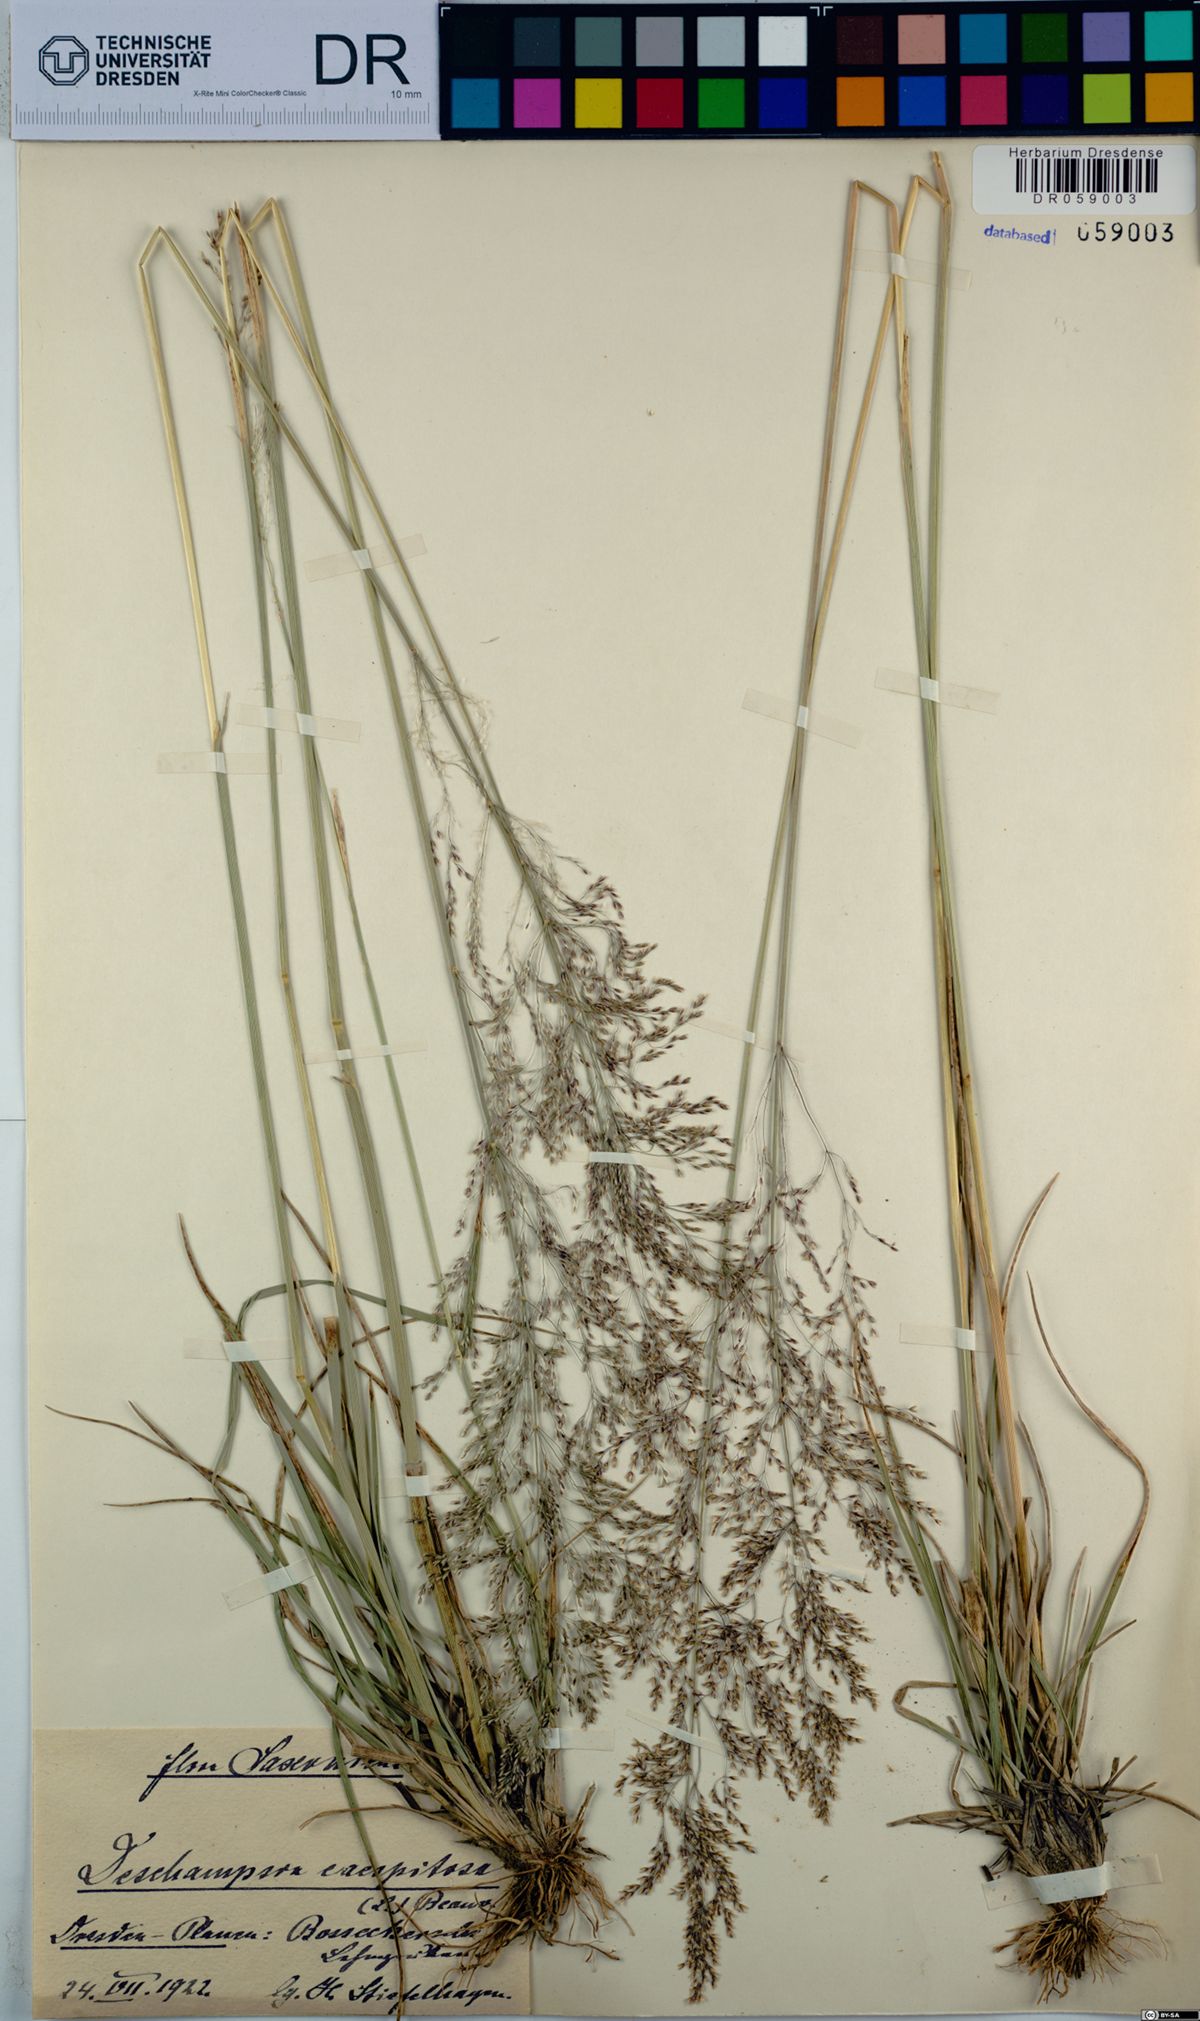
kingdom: Plantae
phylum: Tracheophyta
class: Liliopsida
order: Poales
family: Poaceae
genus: Deschampsia
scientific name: Deschampsia cespitosa
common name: Tufted hair-grass
